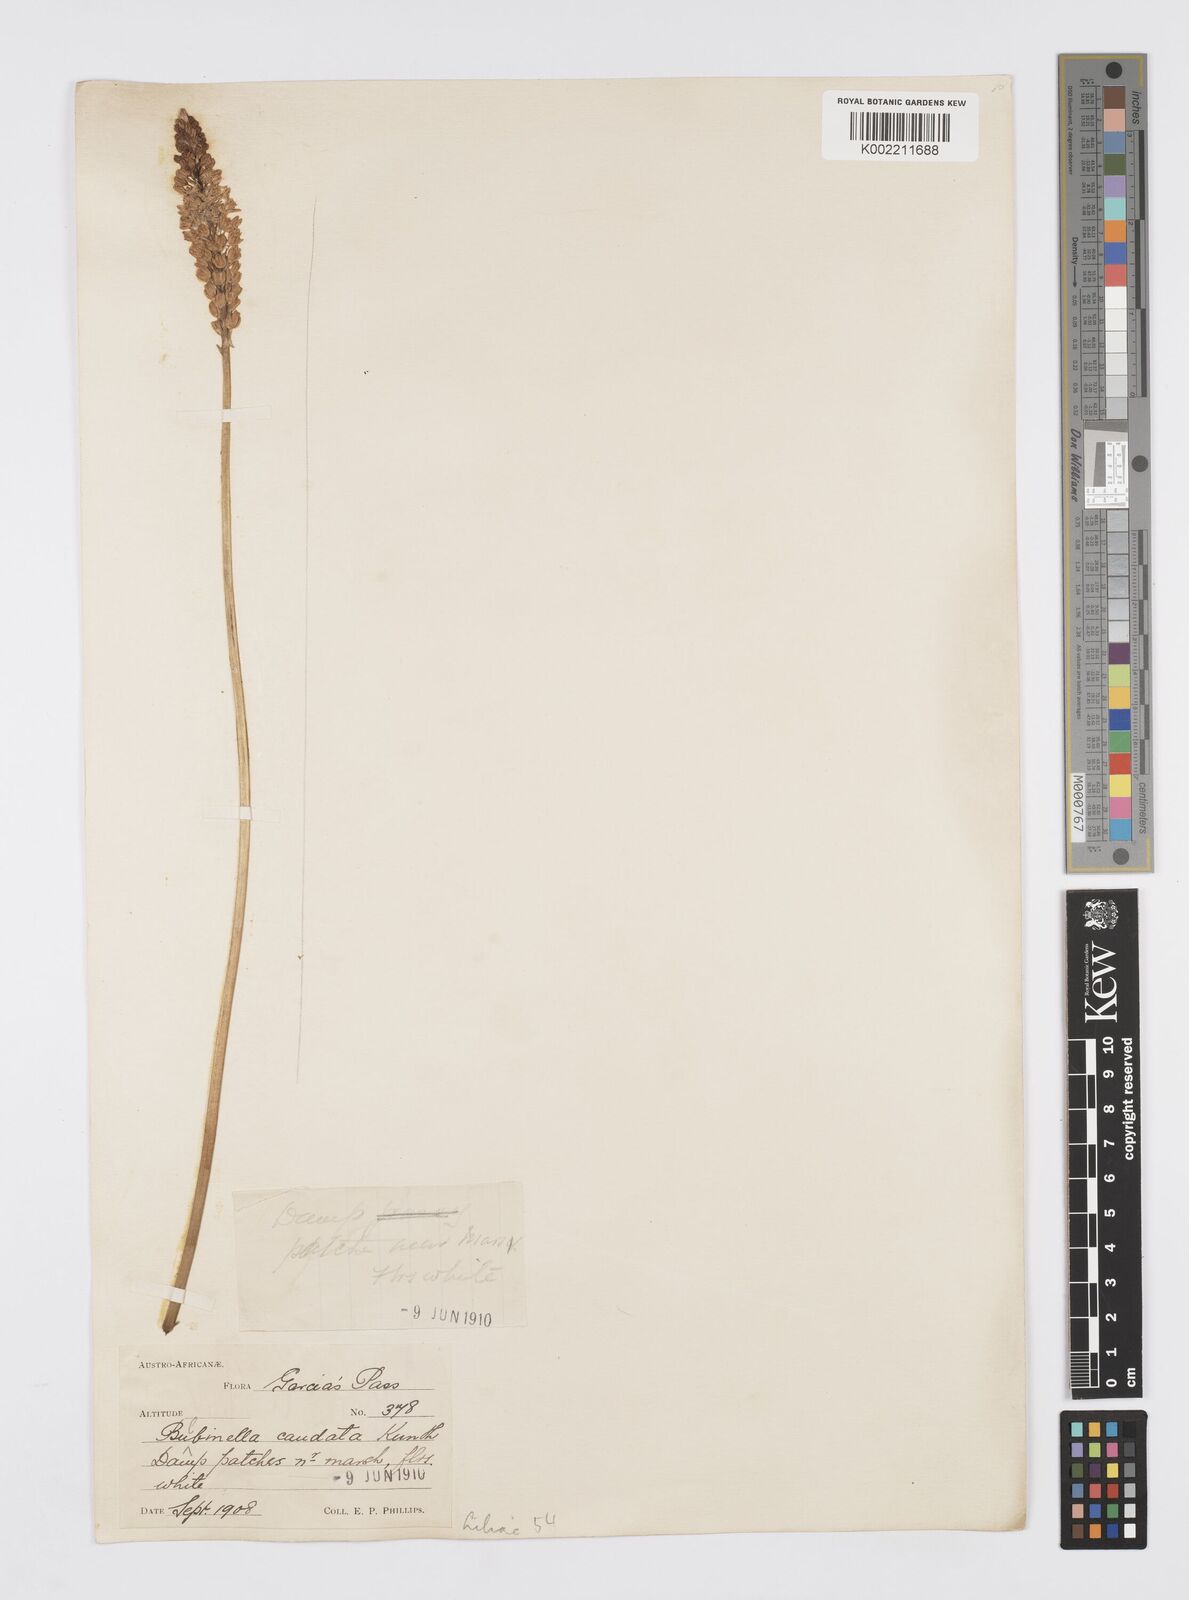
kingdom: Plantae
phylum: Tracheophyta
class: Liliopsida
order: Asparagales
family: Asphodelaceae
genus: Bulbinella
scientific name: Bulbinella cauda-felis
